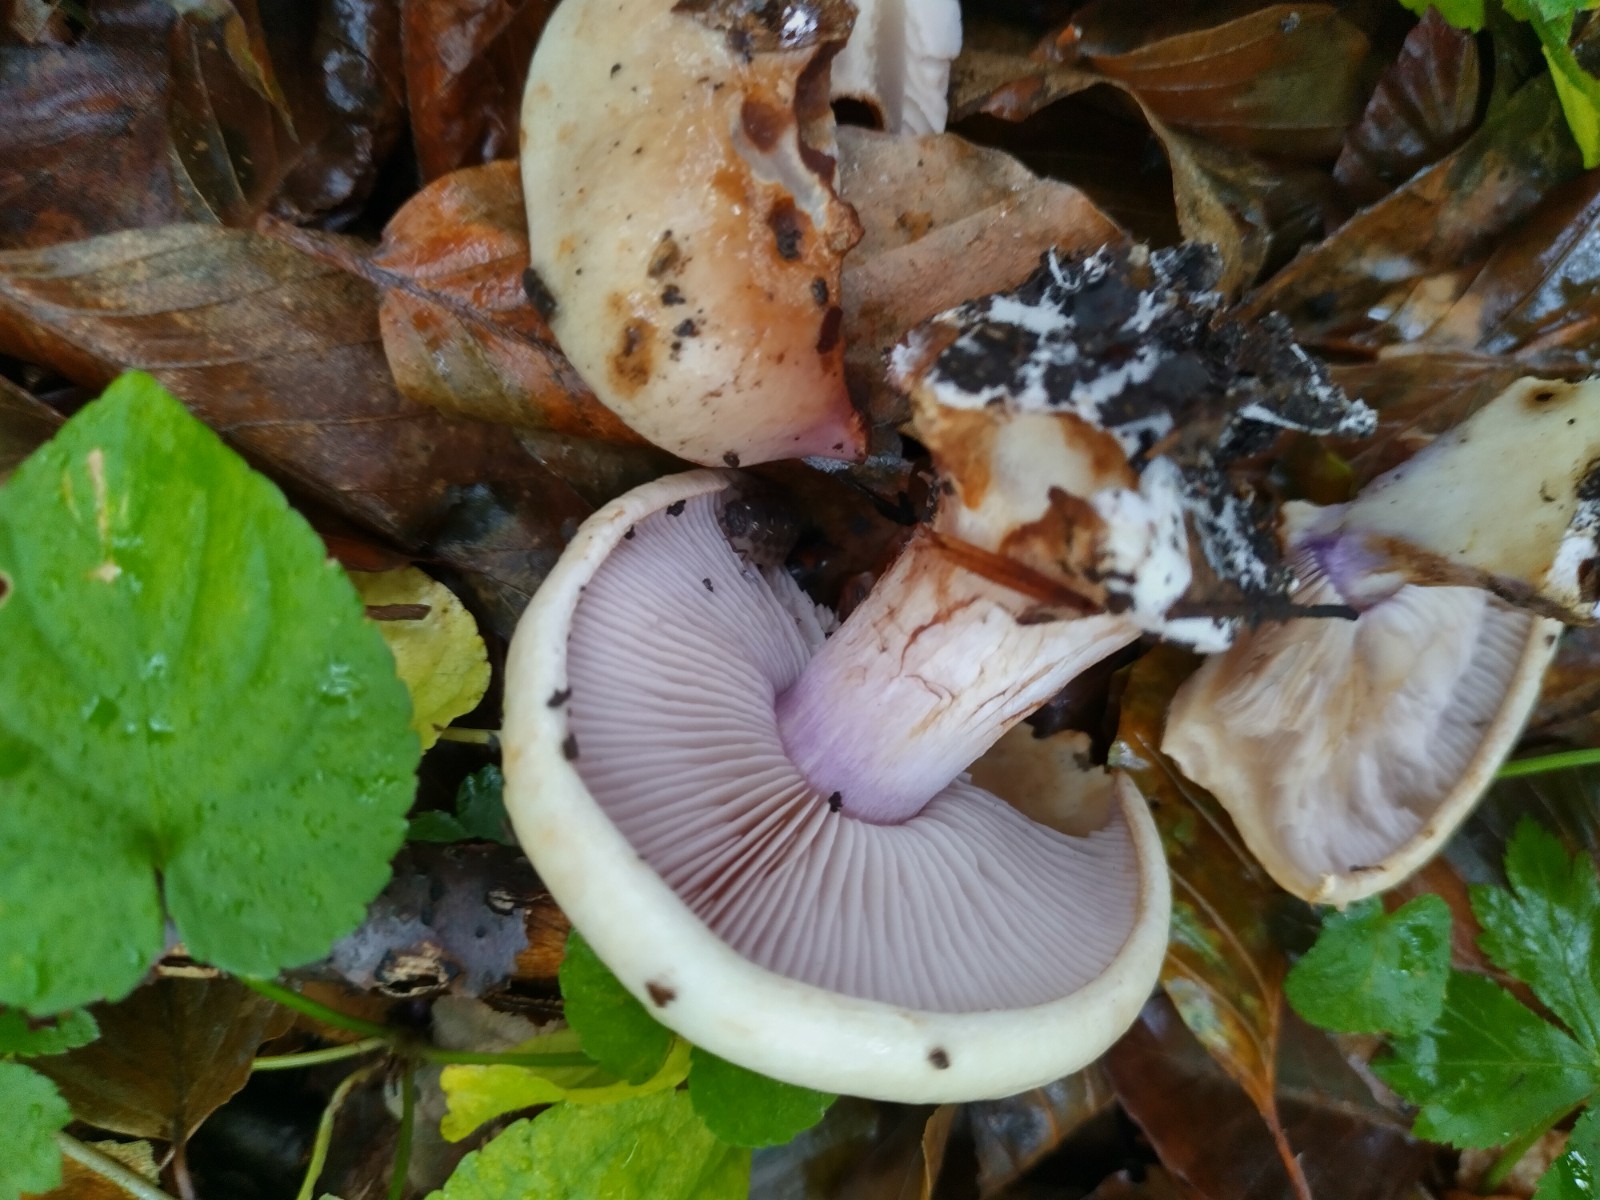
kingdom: Fungi
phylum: Basidiomycota
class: Agaricomycetes
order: Agaricales
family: Cortinariaceae
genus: Calonarius
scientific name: Calonarius lilacinovelatus
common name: violetknoldet slørhat
